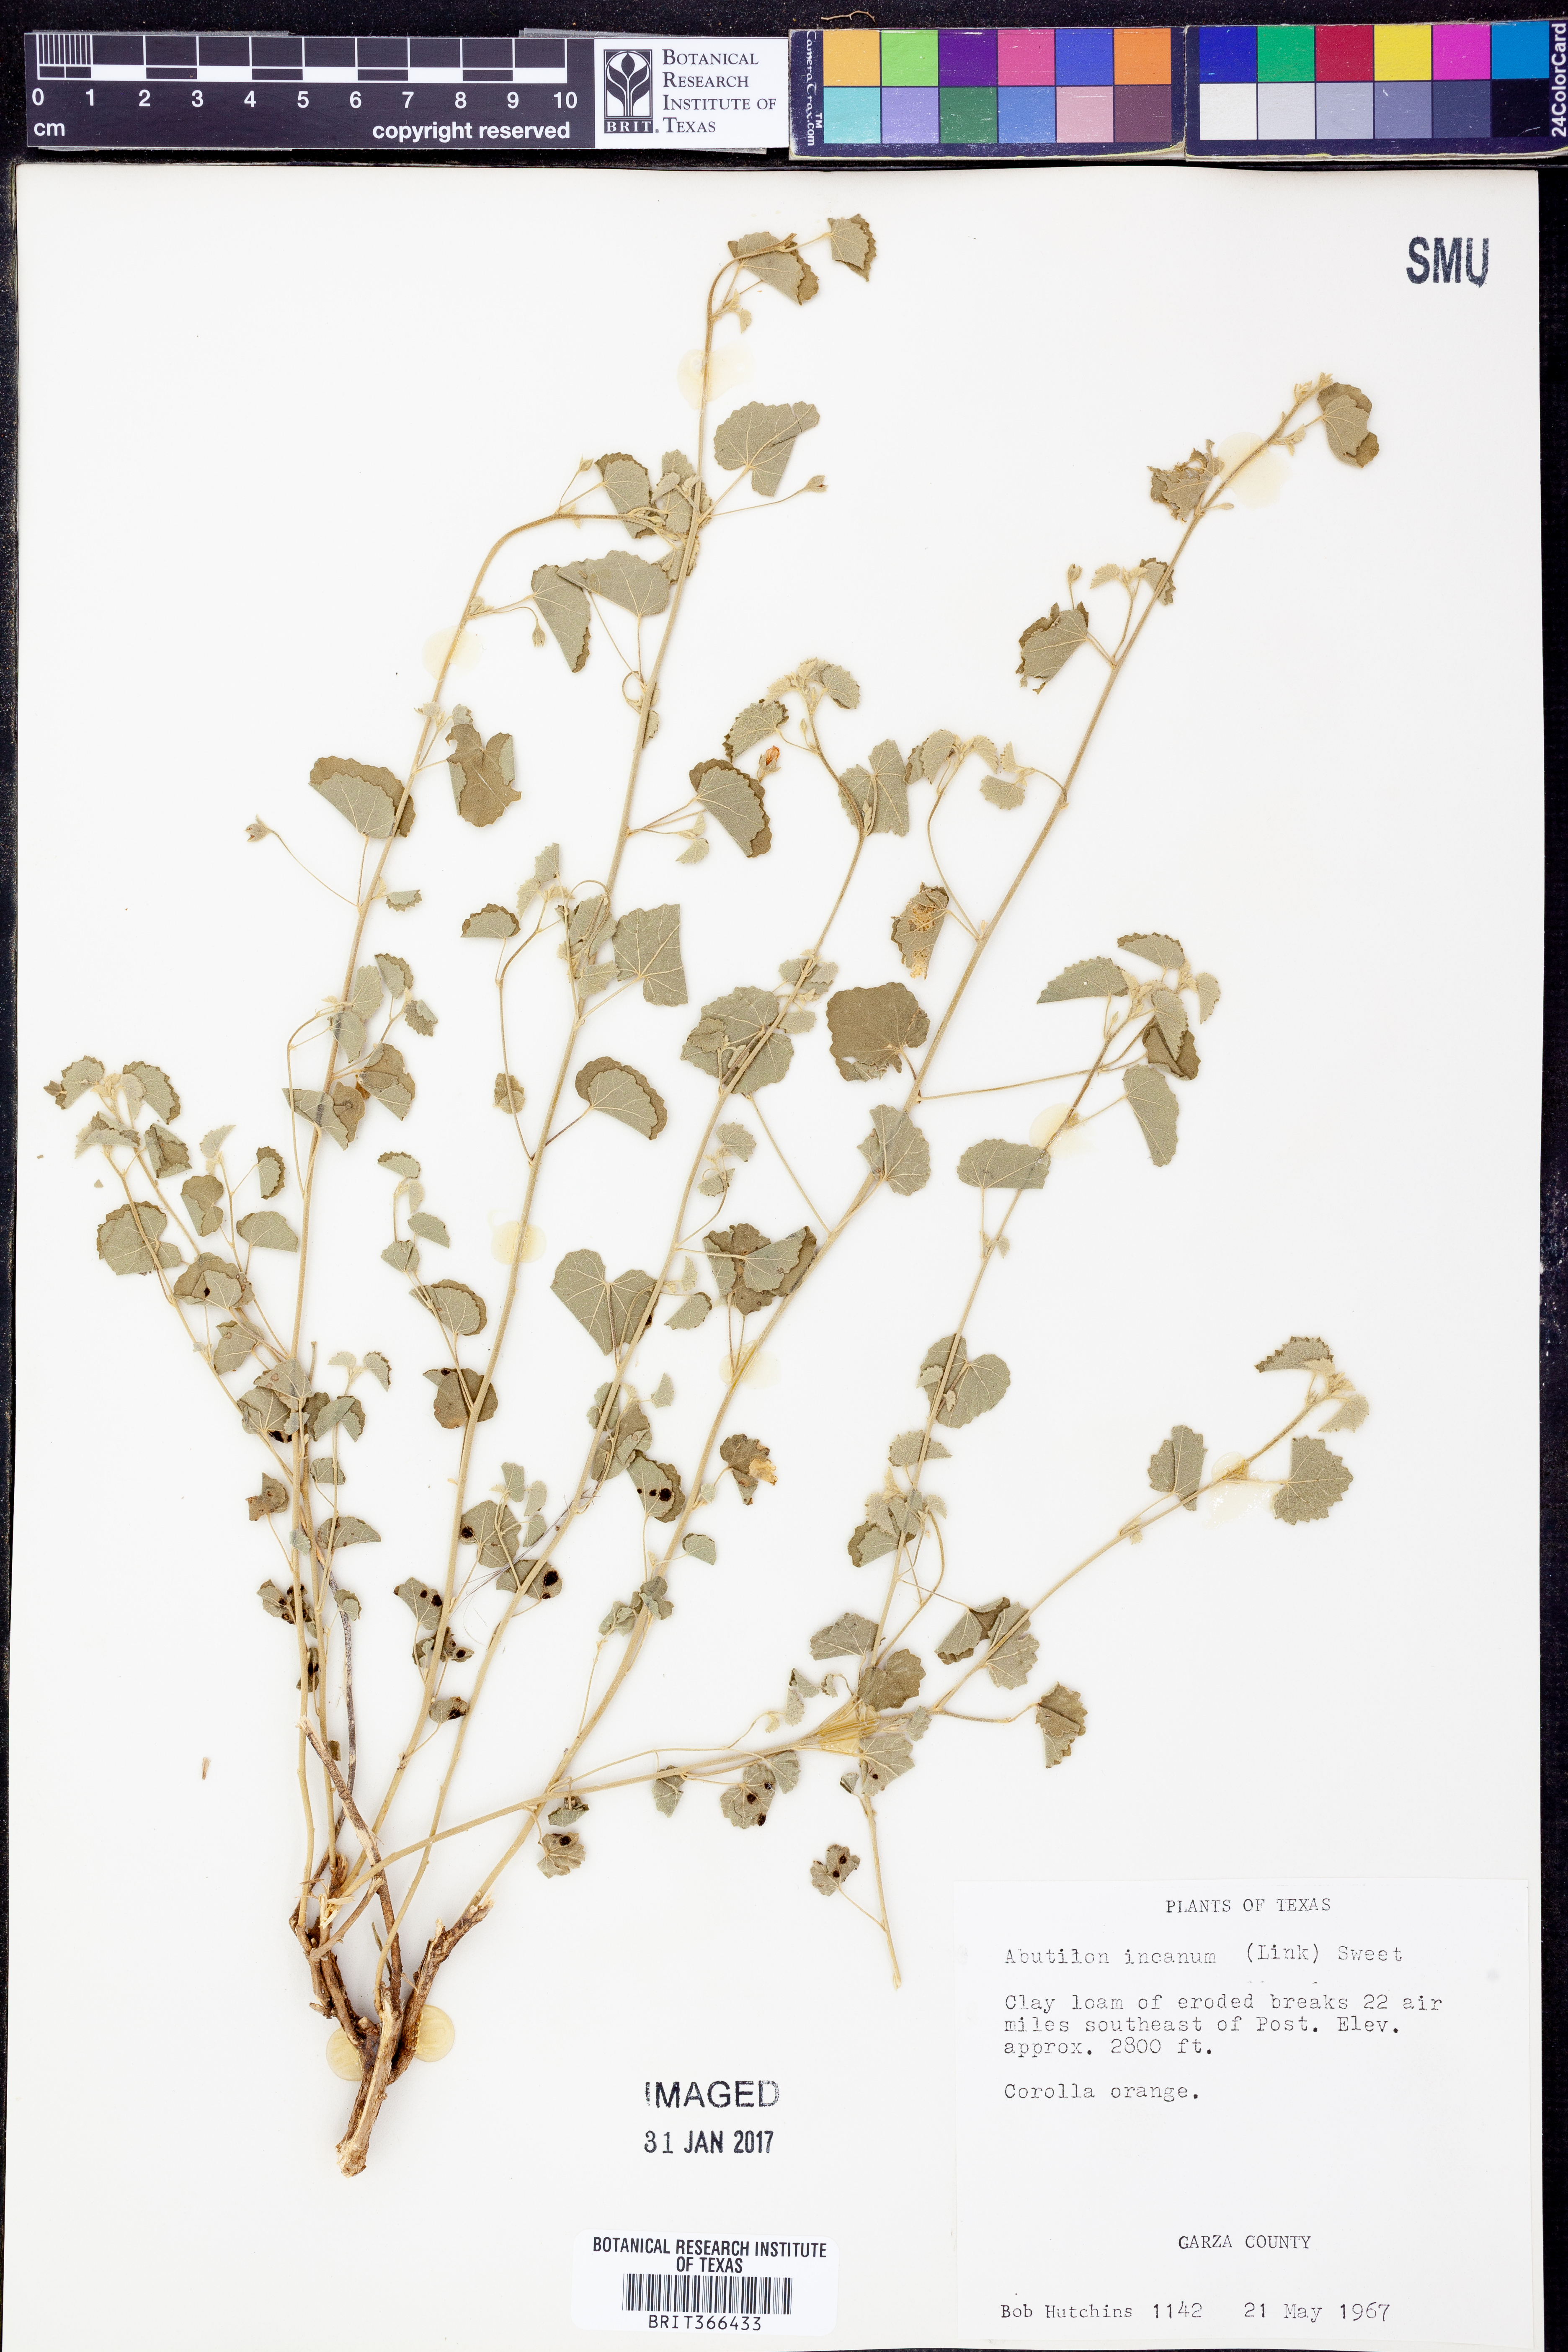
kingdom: Plantae
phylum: Tracheophyta
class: Magnoliopsida
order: Malvales
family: Malvaceae
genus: Abutilon
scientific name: Abutilon incanum
